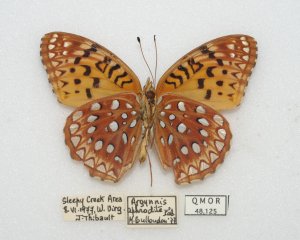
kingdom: Animalia
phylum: Arthropoda
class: Insecta
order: Lepidoptera
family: Nymphalidae
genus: Speyeria
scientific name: Speyeria aphrodite
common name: Aphrodite Fritillary
